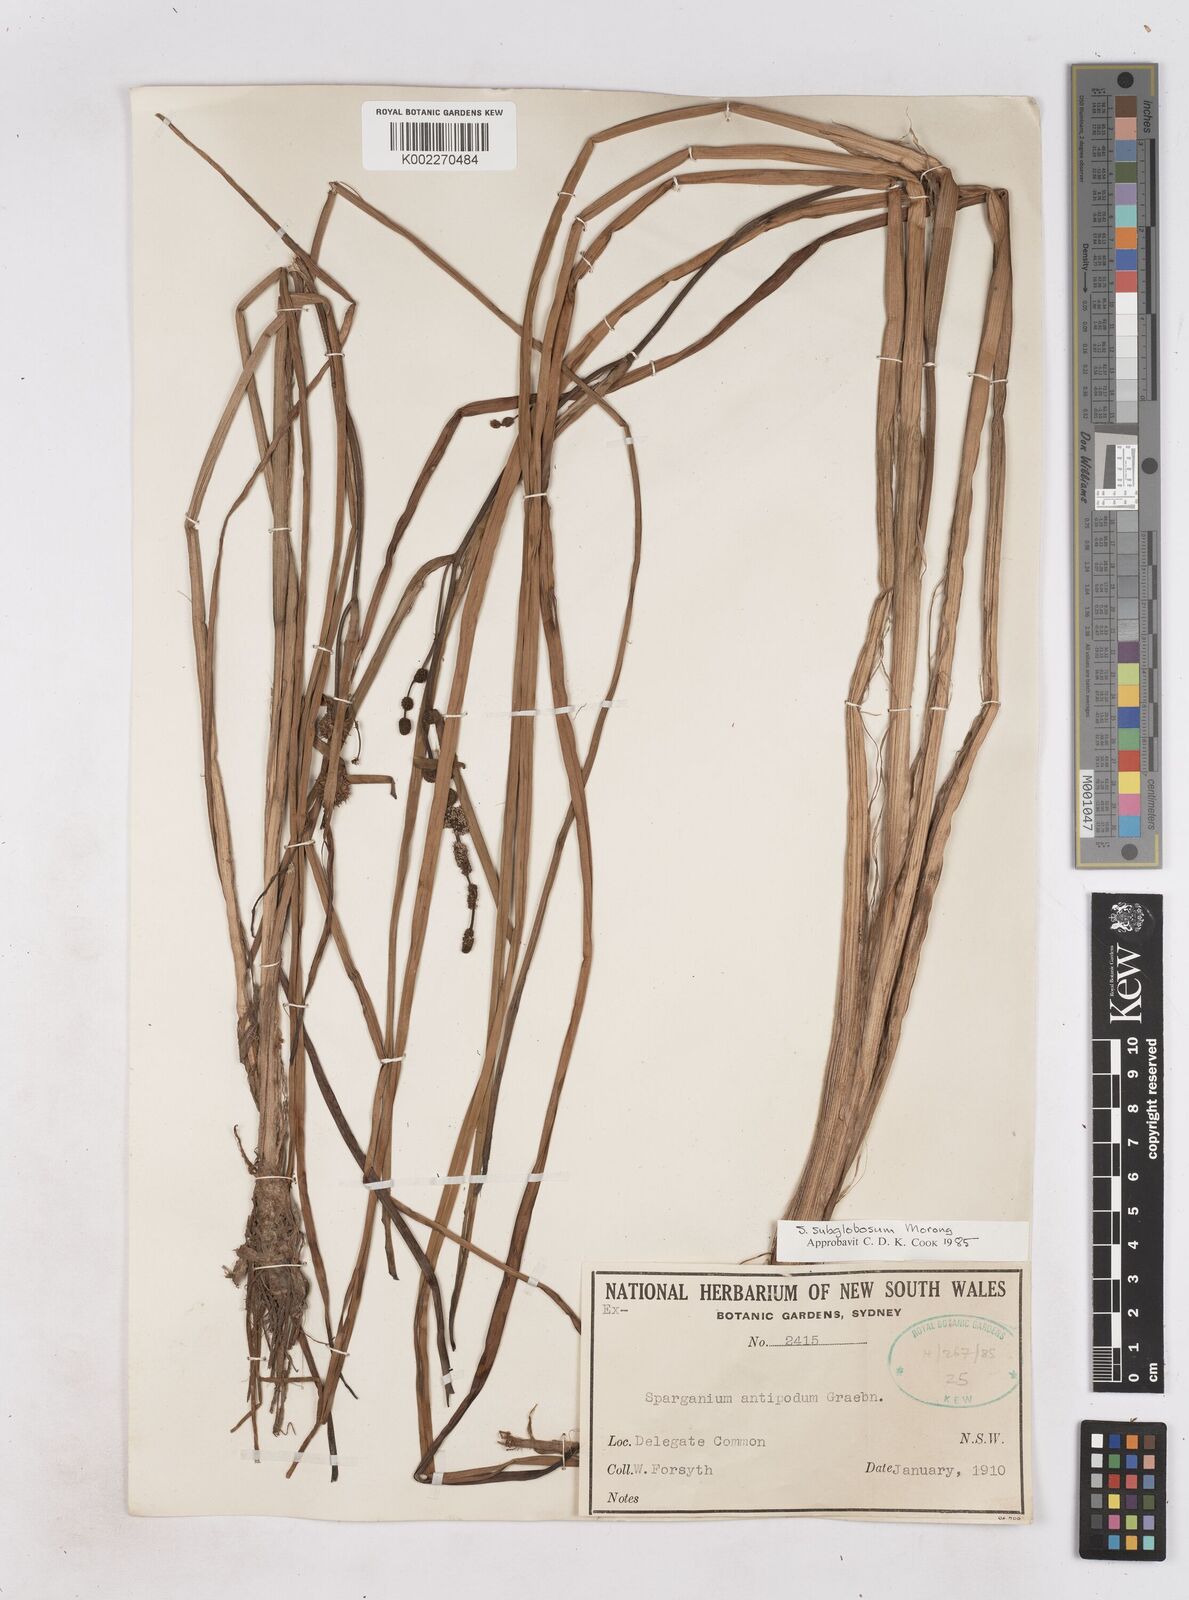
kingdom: Plantae
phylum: Tracheophyta
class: Liliopsida
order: Poales
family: Typhaceae
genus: Sparganium
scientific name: Sparganium subglobosum
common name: Burr­-reed
